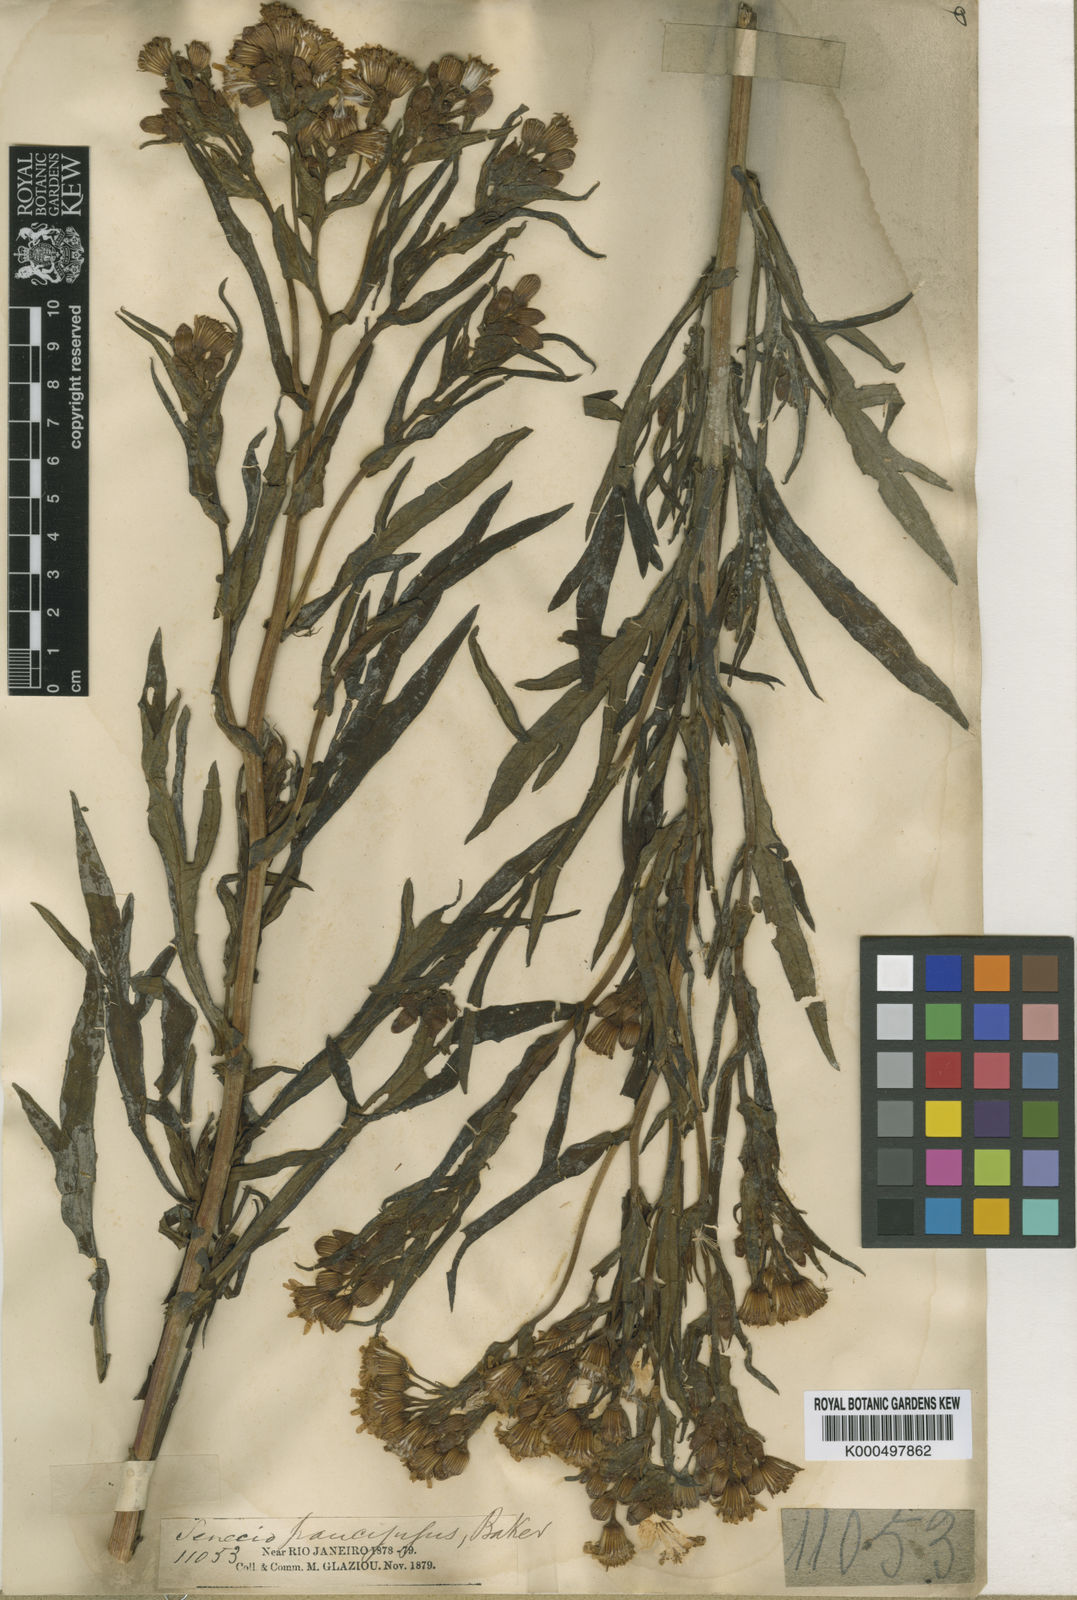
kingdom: Plantae
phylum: Tracheophyta
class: Magnoliopsida
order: Asterales
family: Asteraceae
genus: Senecio
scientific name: Senecio paucijugus
